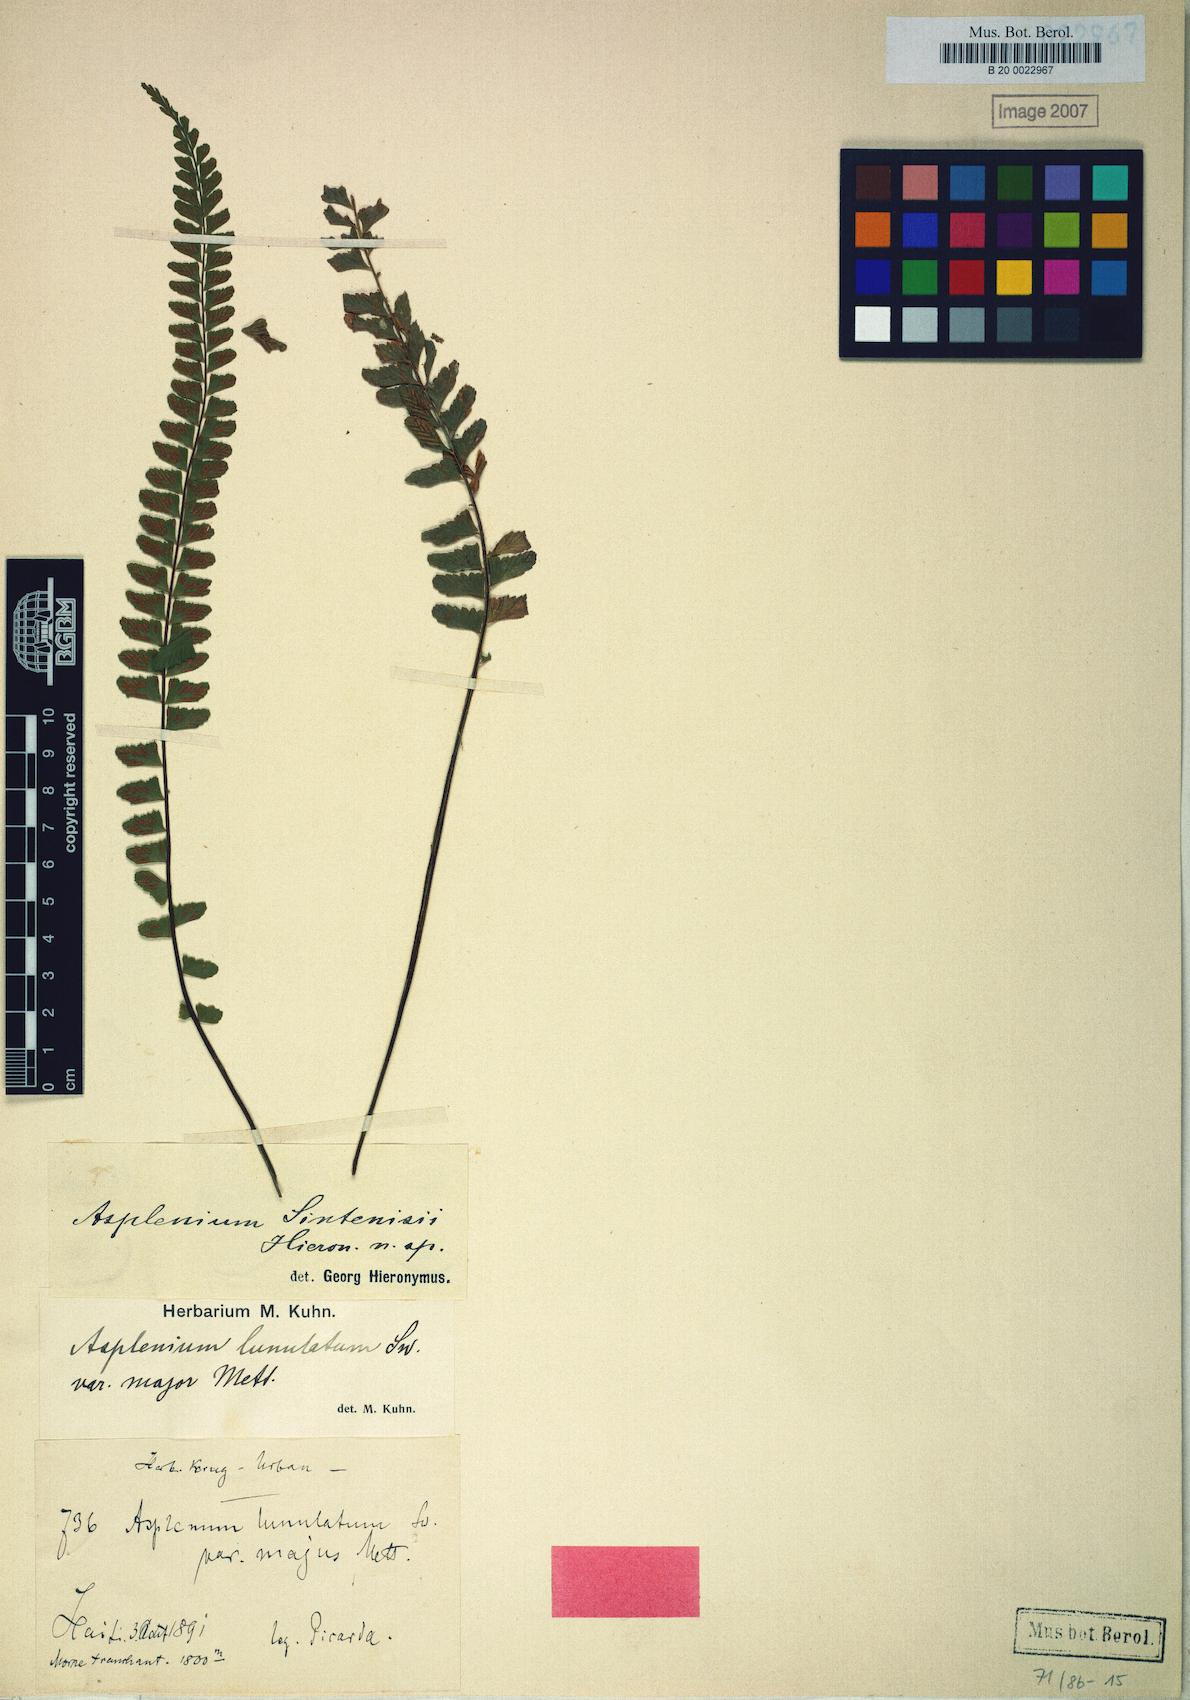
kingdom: Plantae
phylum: Tracheophyta
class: Polypodiopsida
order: Polypodiales
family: Aspleniaceae
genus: Asplenium
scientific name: Asplenium rhomboidale
